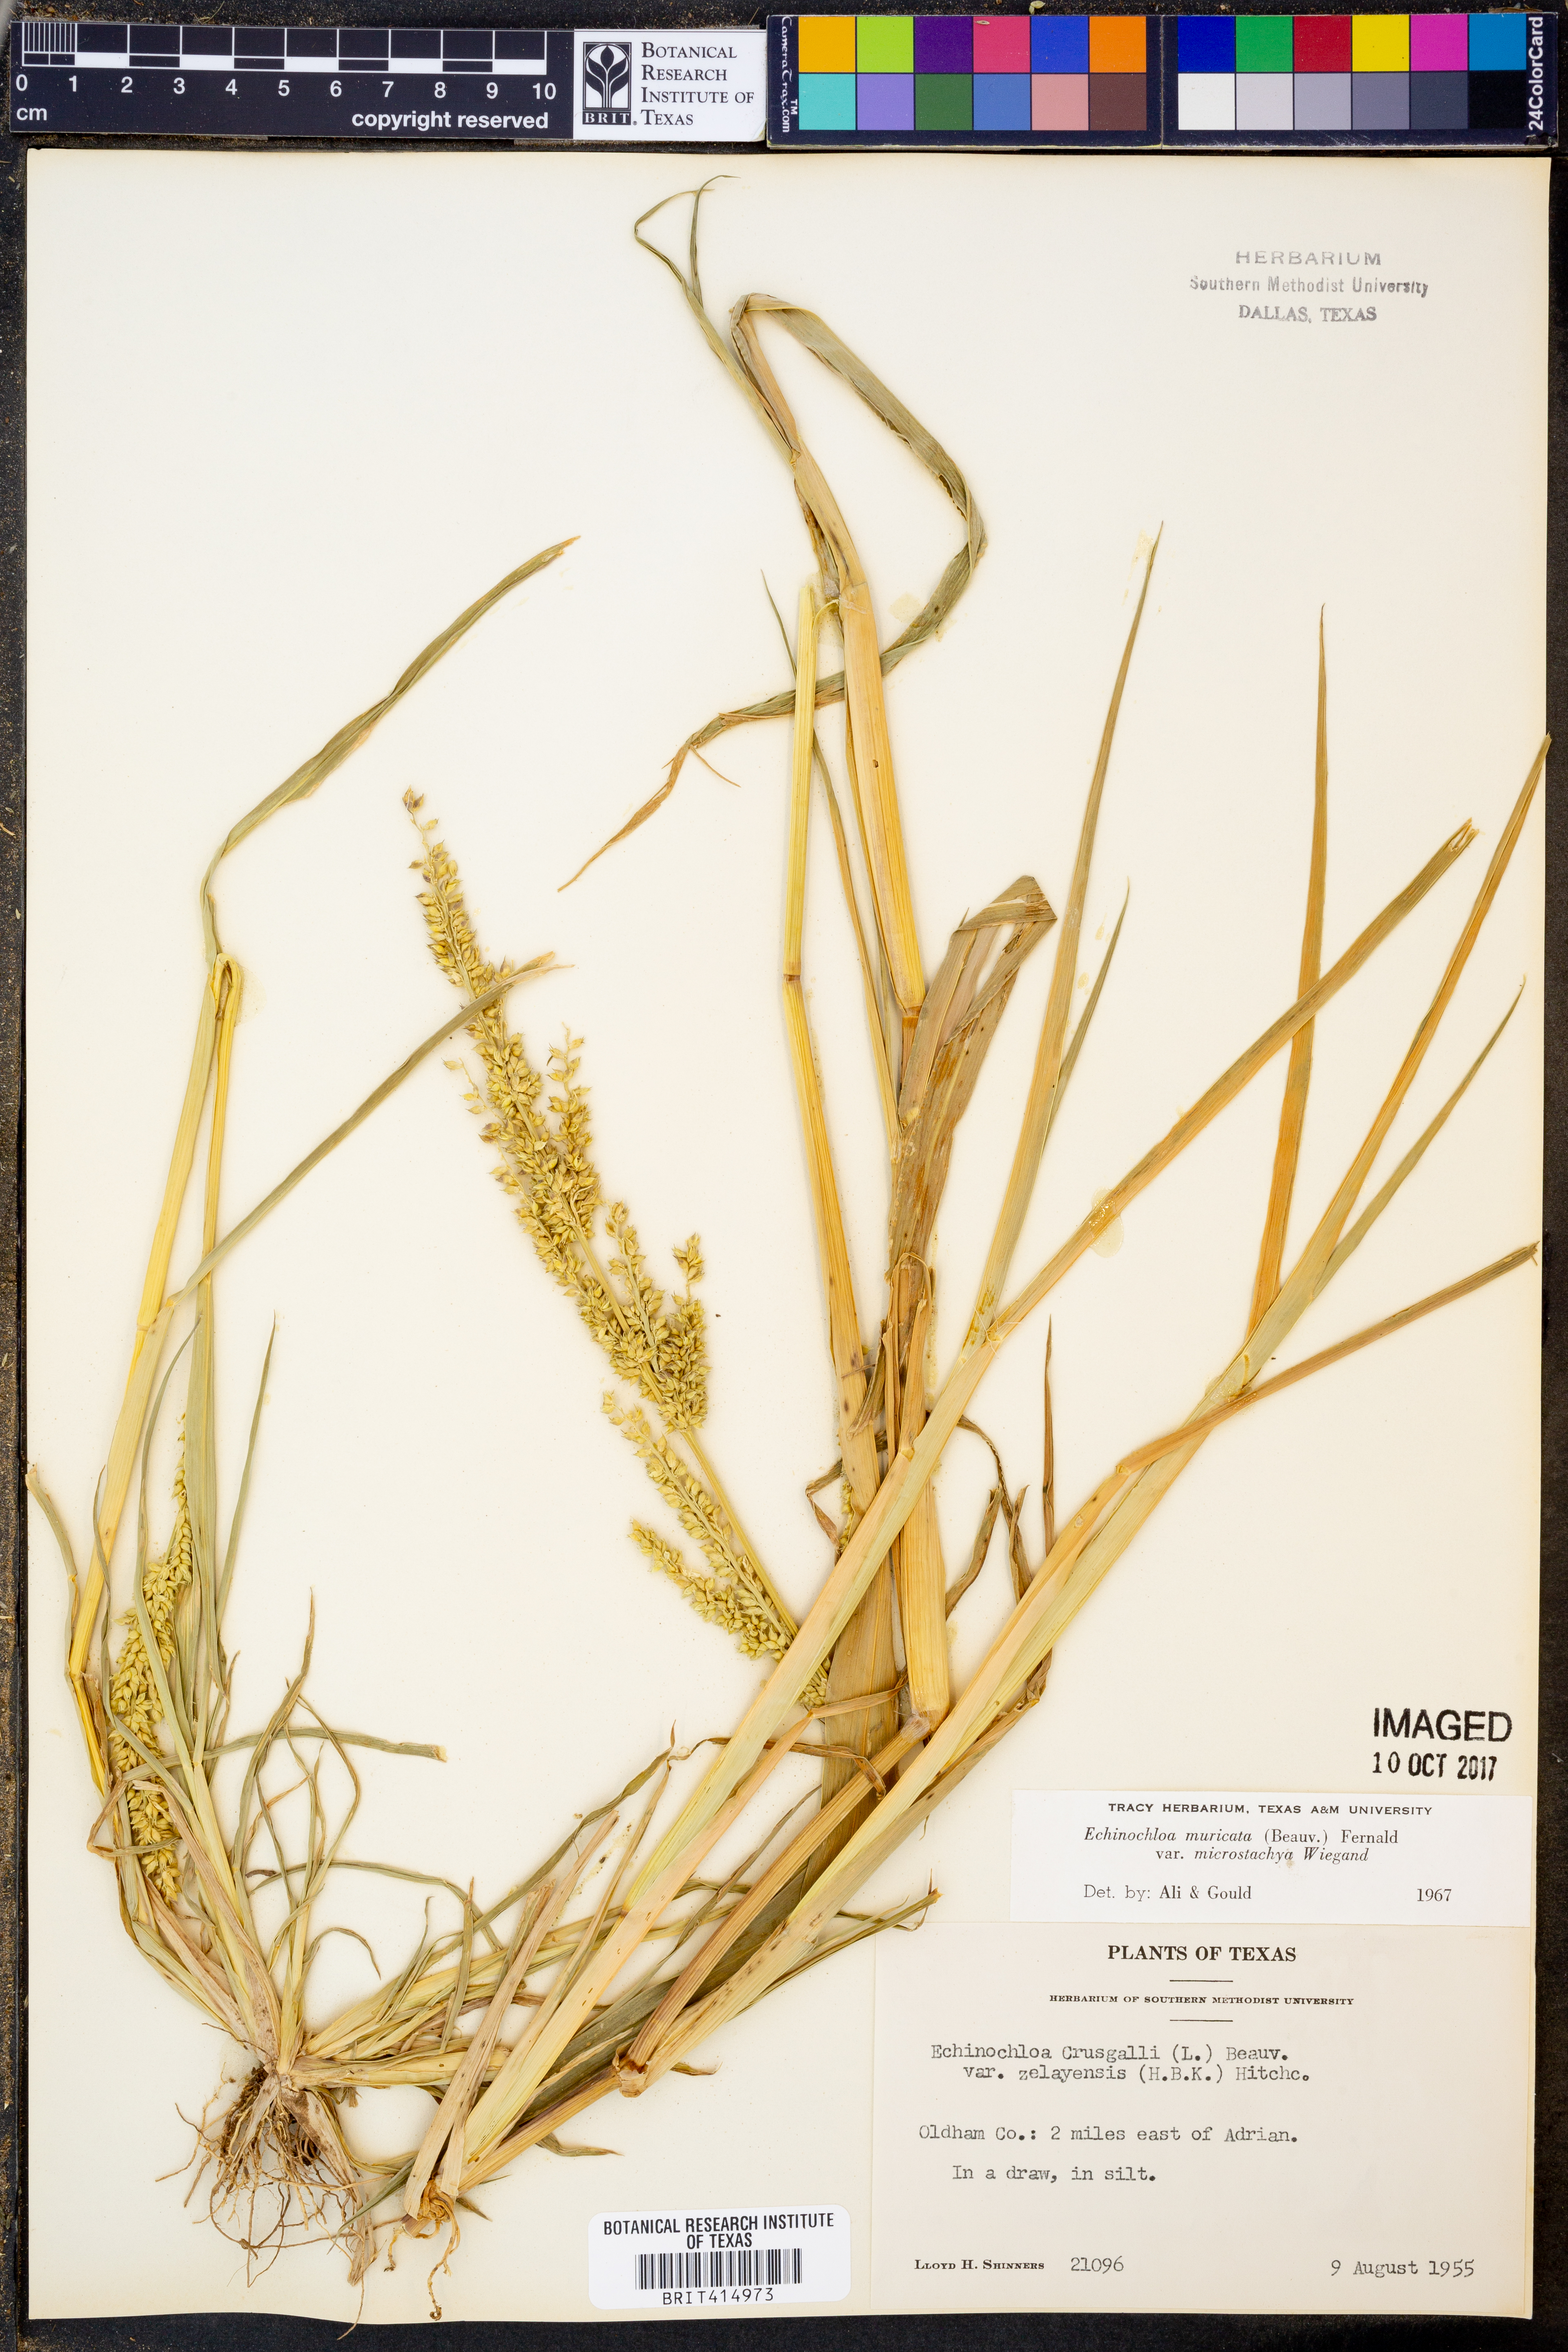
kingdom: Plantae
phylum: Tracheophyta
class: Liliopsida
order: Poales
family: Poaceae
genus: Echinochloa
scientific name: Echinochloa muricata
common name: American barnyard grass
